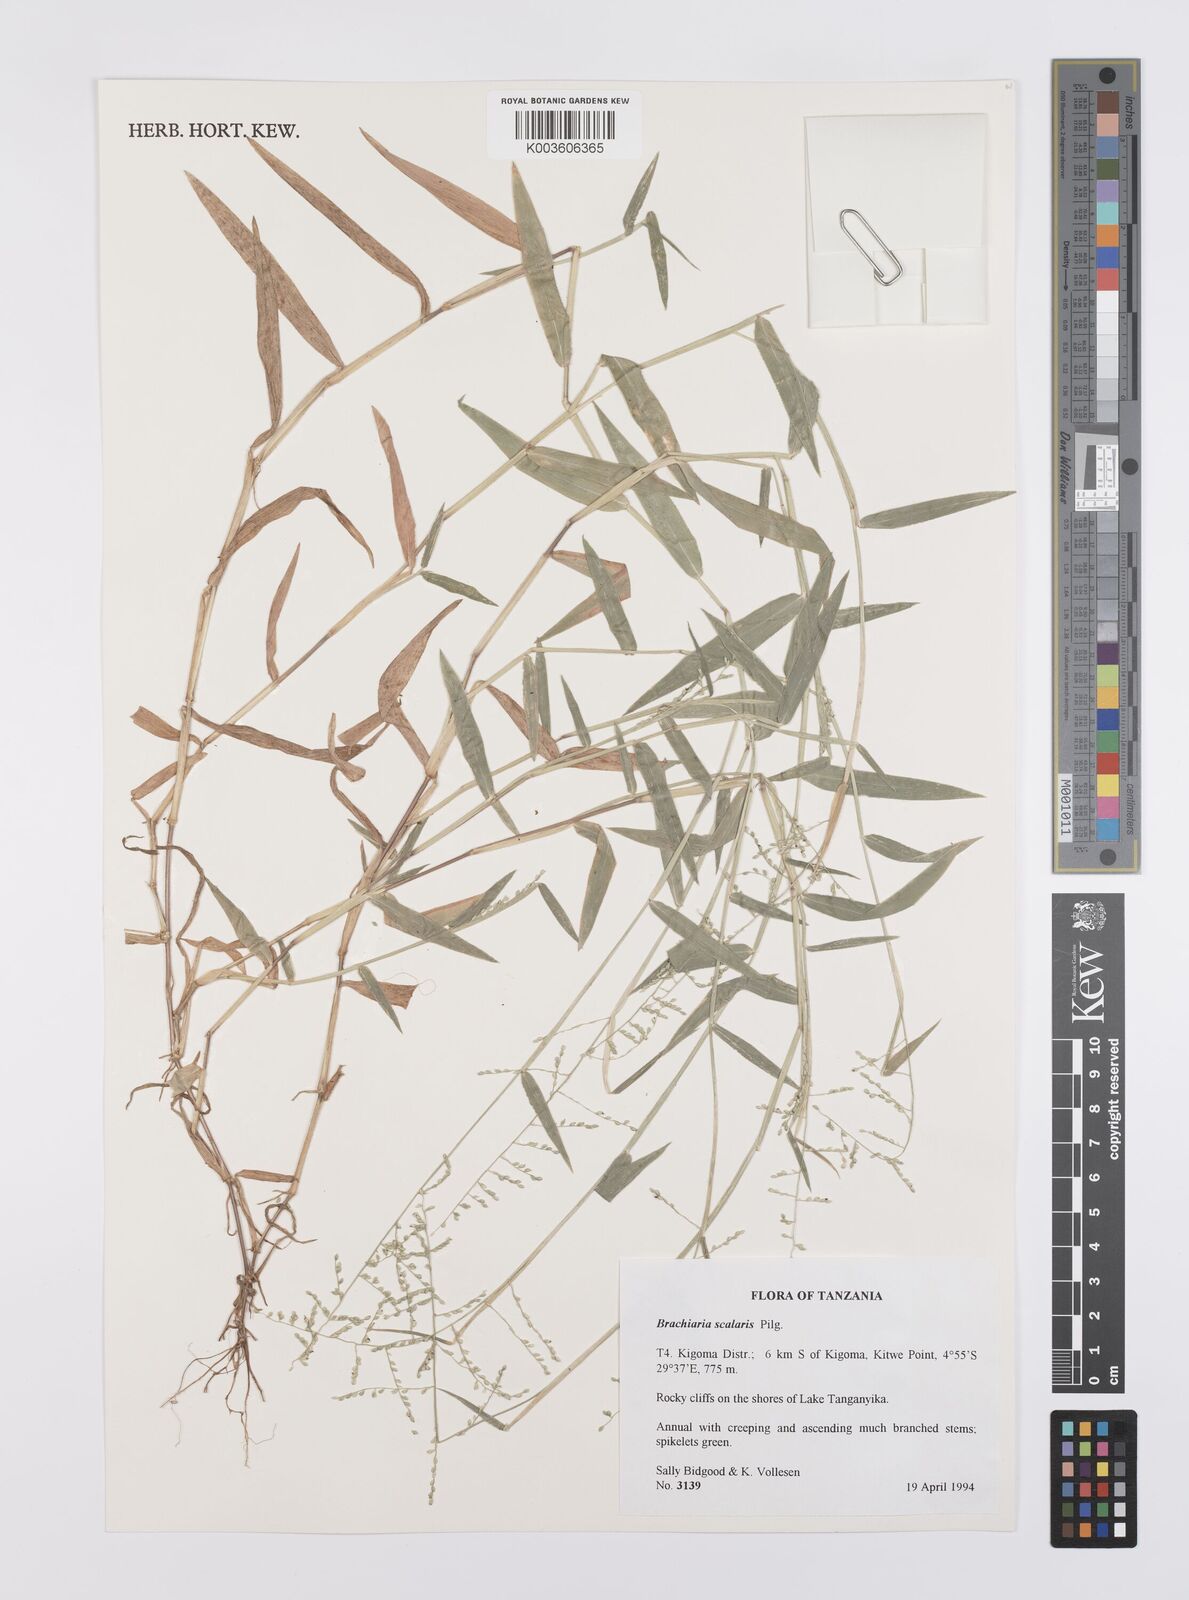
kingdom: Plantae
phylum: Tracheophyta
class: Liliopsida
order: Poales
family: Poaceae
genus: Urochloa
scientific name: Urochloa comata
